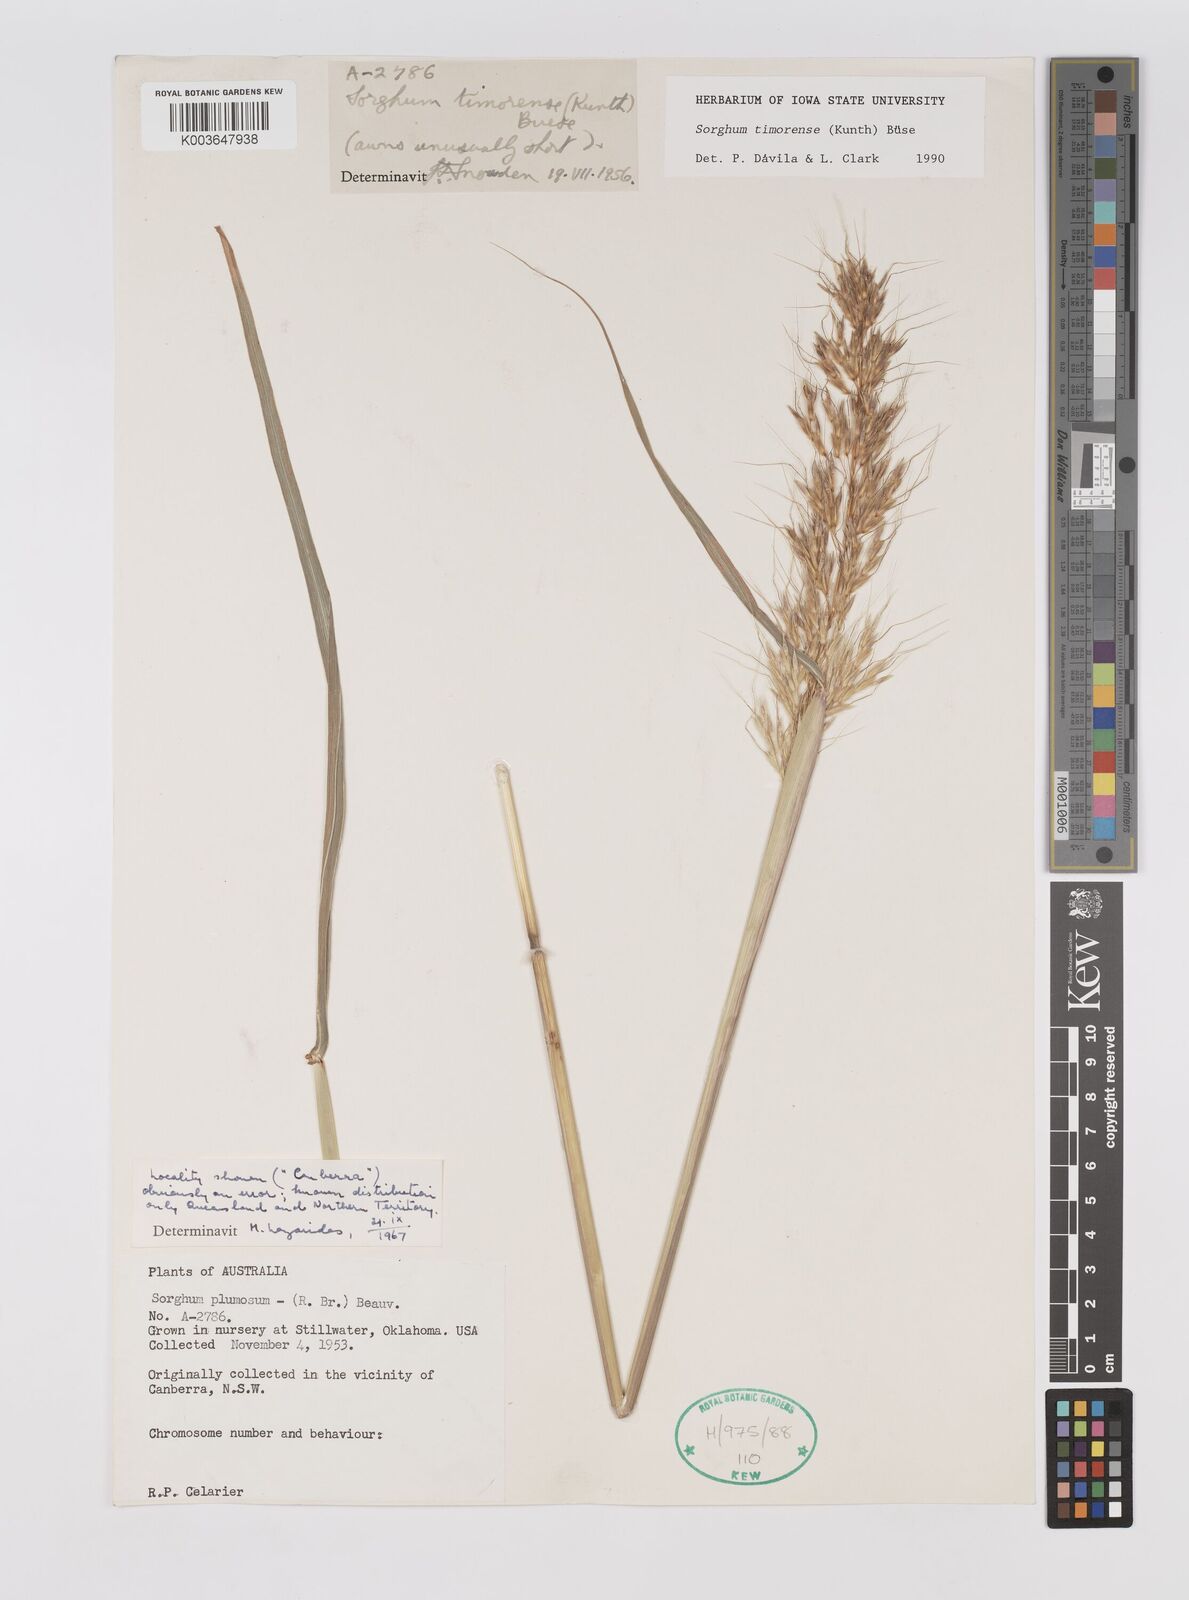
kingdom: Plantae
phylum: Tracheophyta
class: Liliopsida
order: Poales
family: Poaceae
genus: Sarga
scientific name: Sarga timorensis
